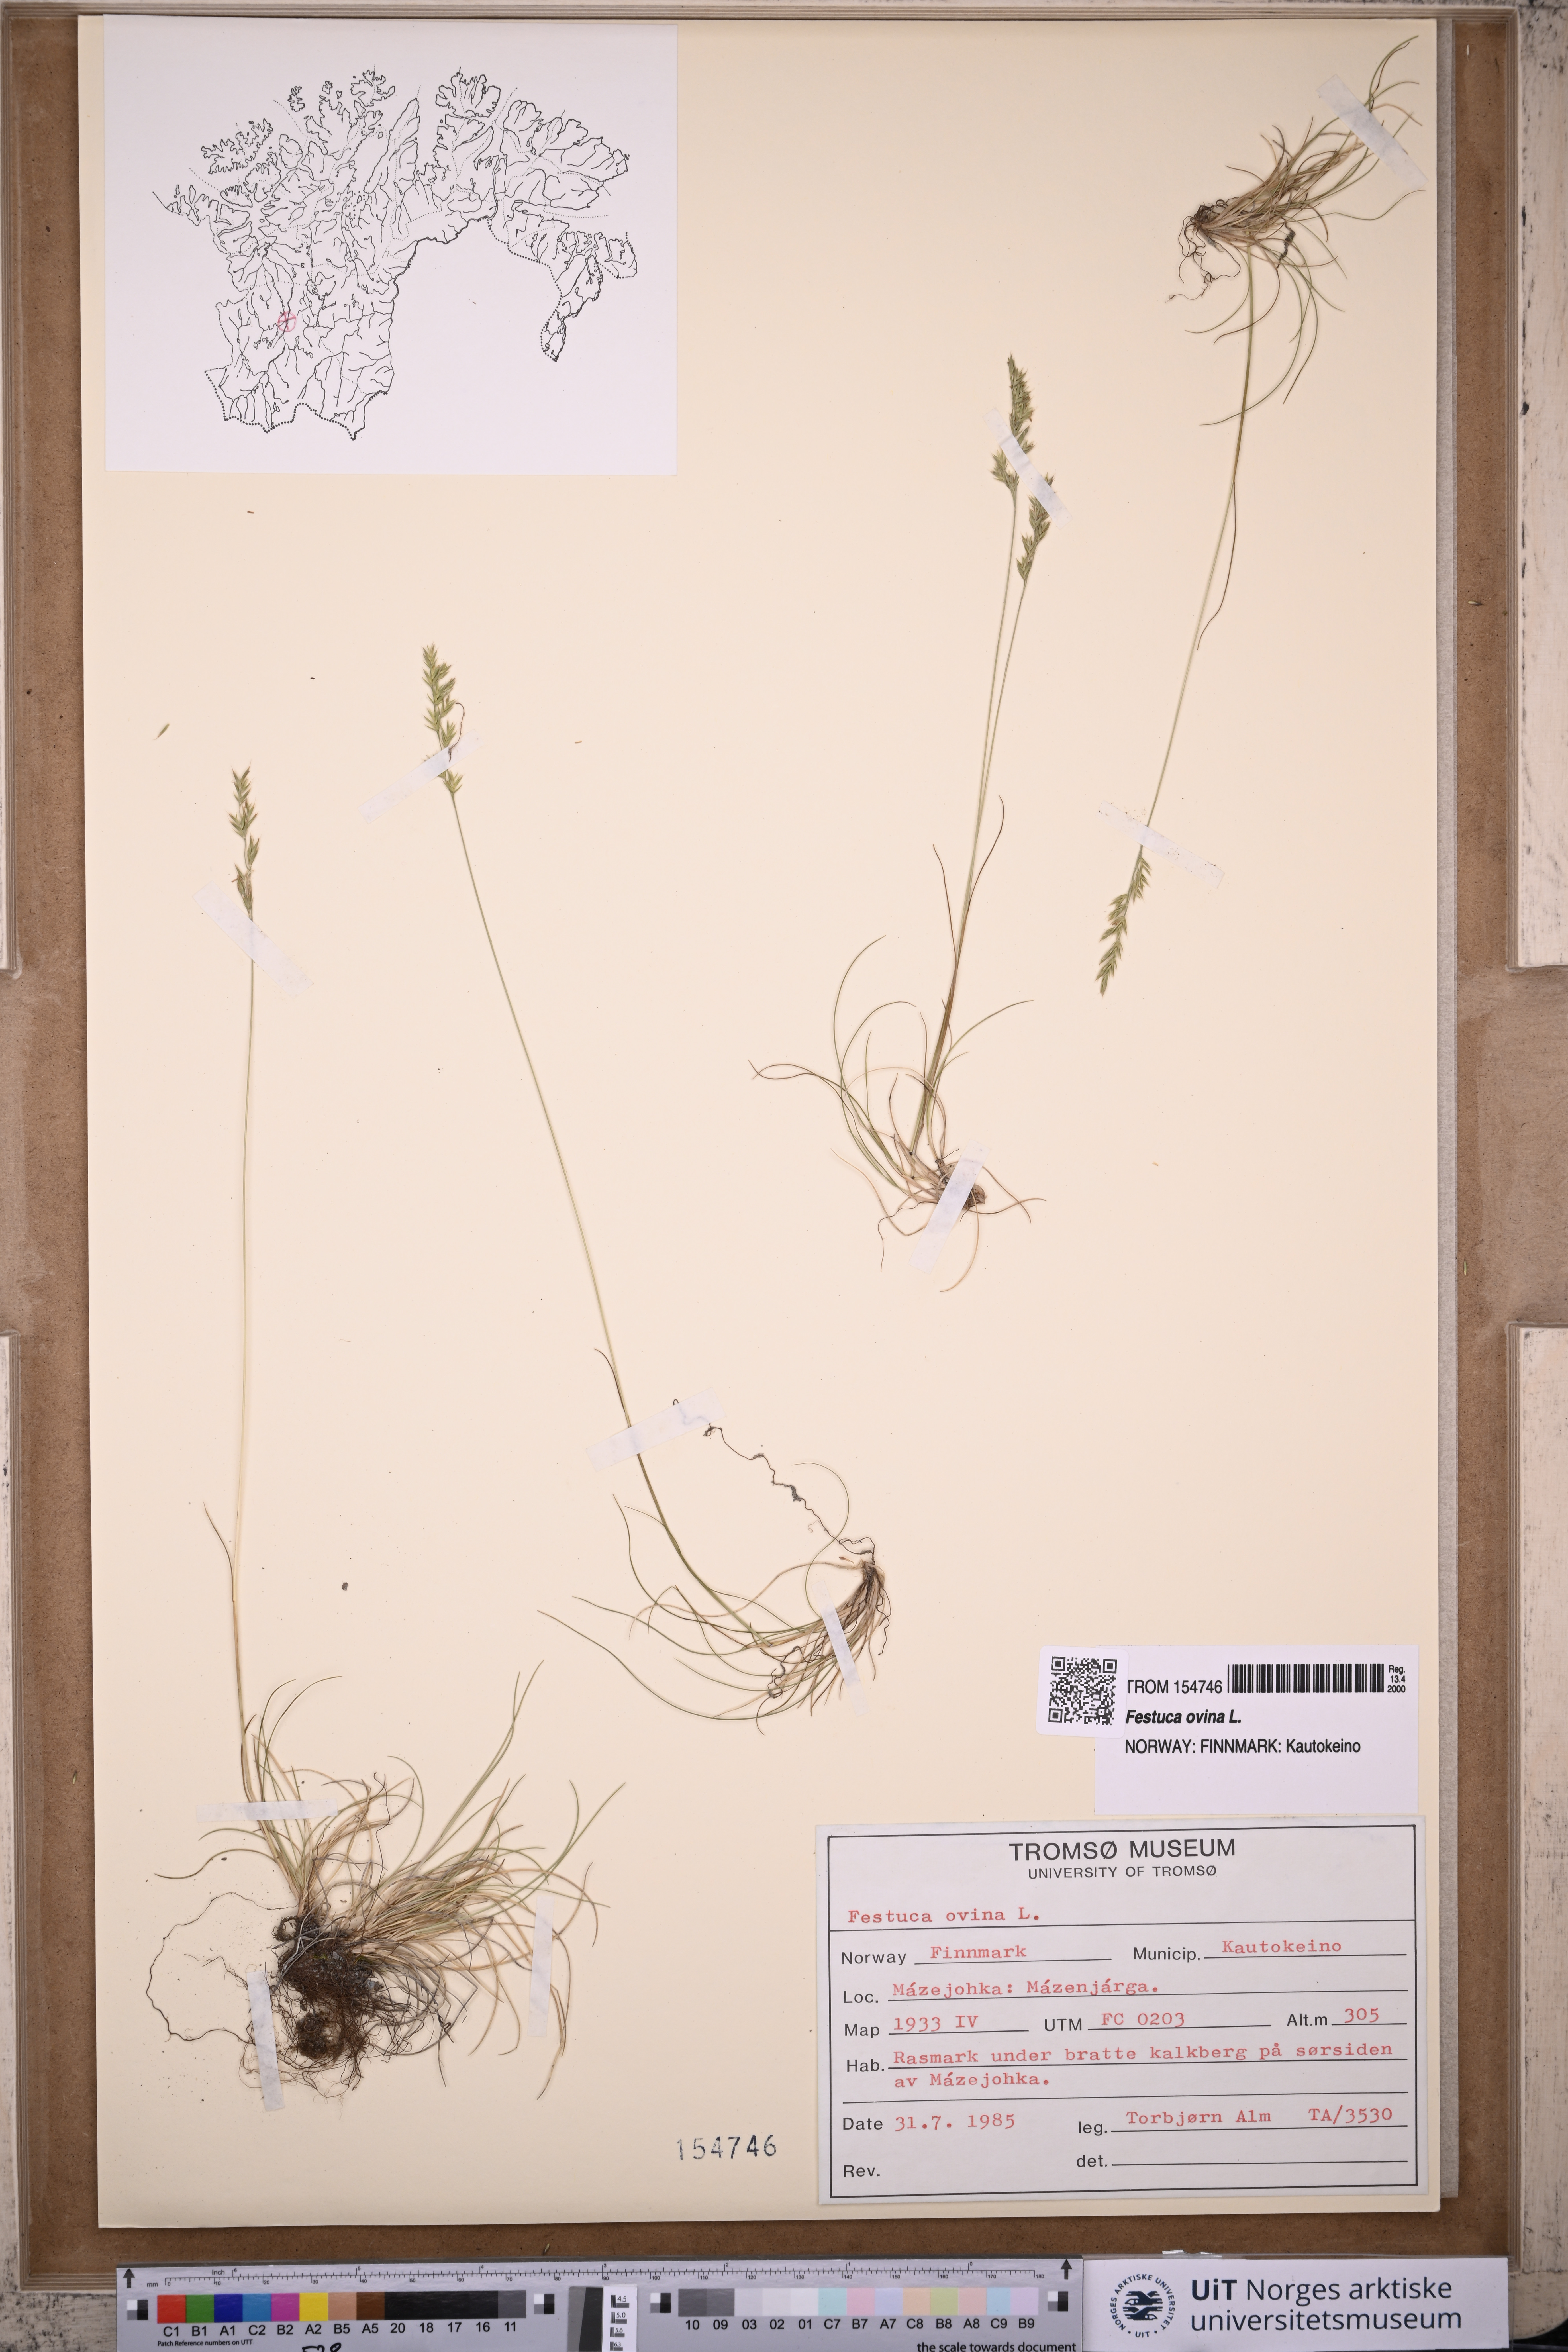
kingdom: Plantae
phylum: Tracheophyta
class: Liliopsida
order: Poales
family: Poaceae
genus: Festuca
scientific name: Festuca ovina
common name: Sheep fescue
